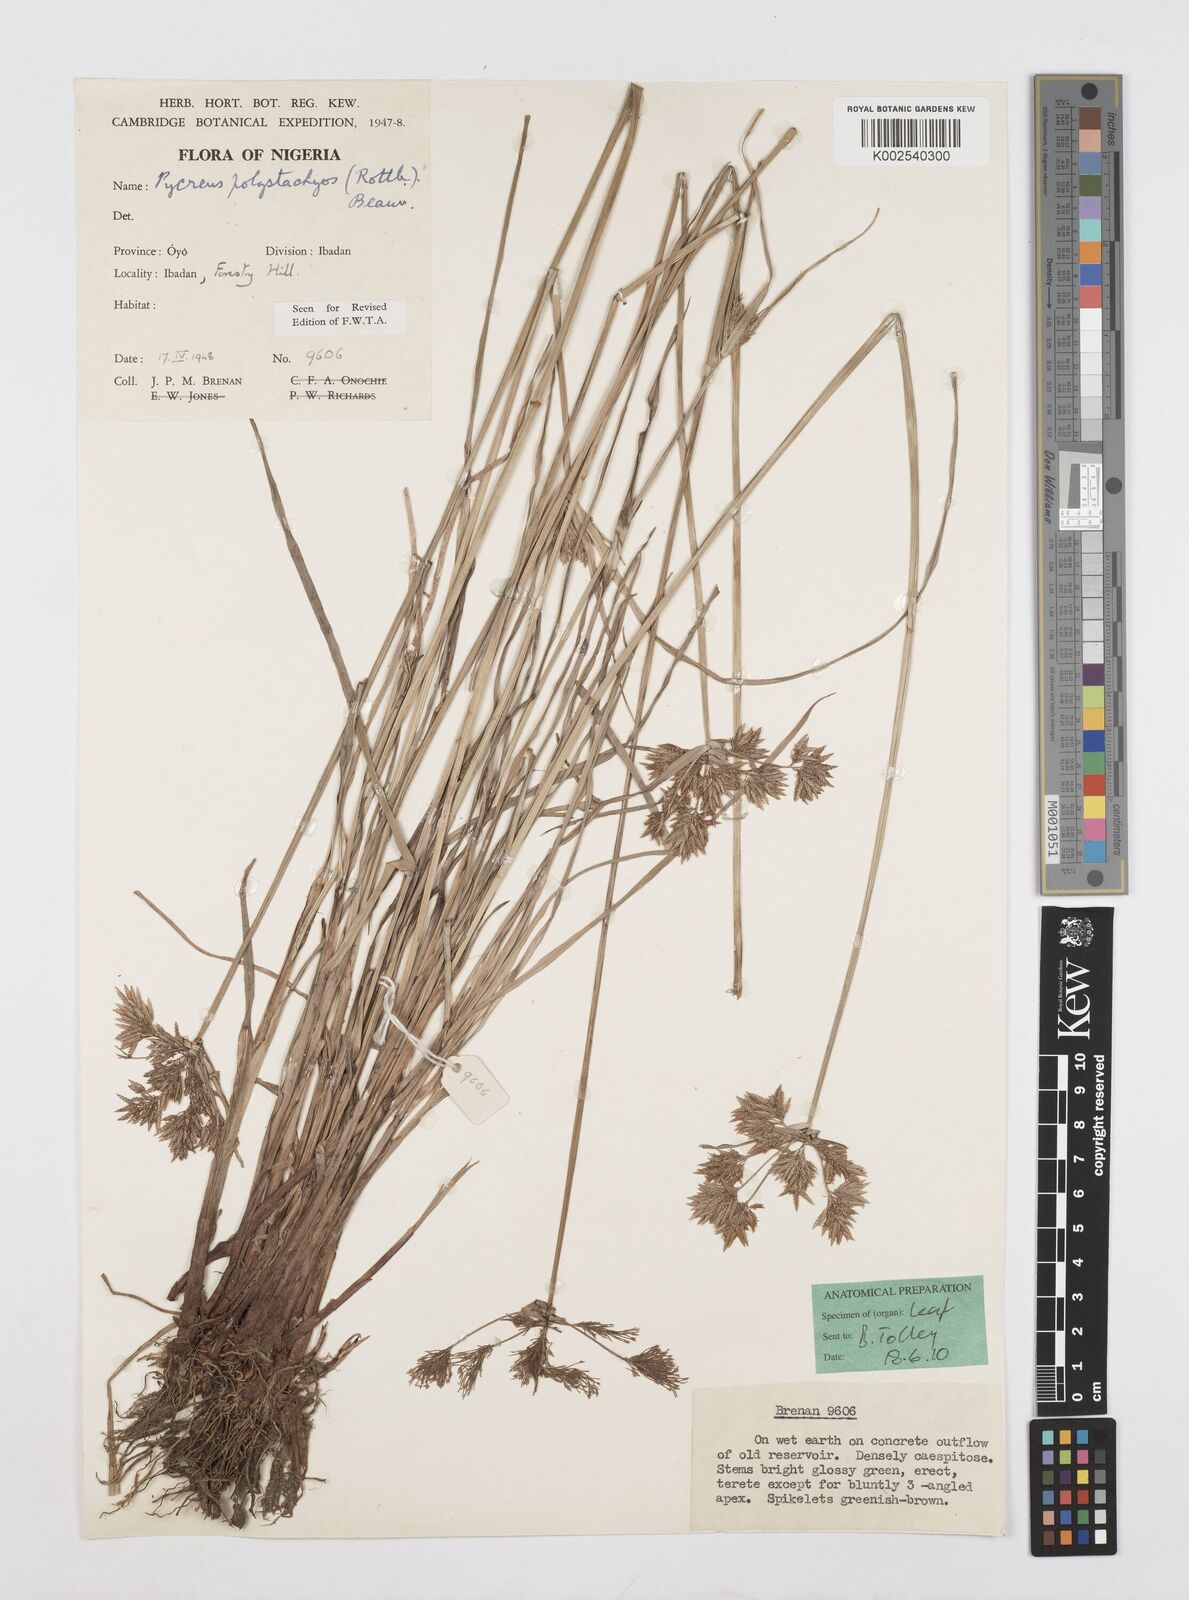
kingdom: Plantae
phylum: Tracheophyta
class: Liliopsida
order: Poales
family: Cyperaceae
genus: Cyperus
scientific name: Cyperus polystachyos
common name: Bunchy flat sedge
